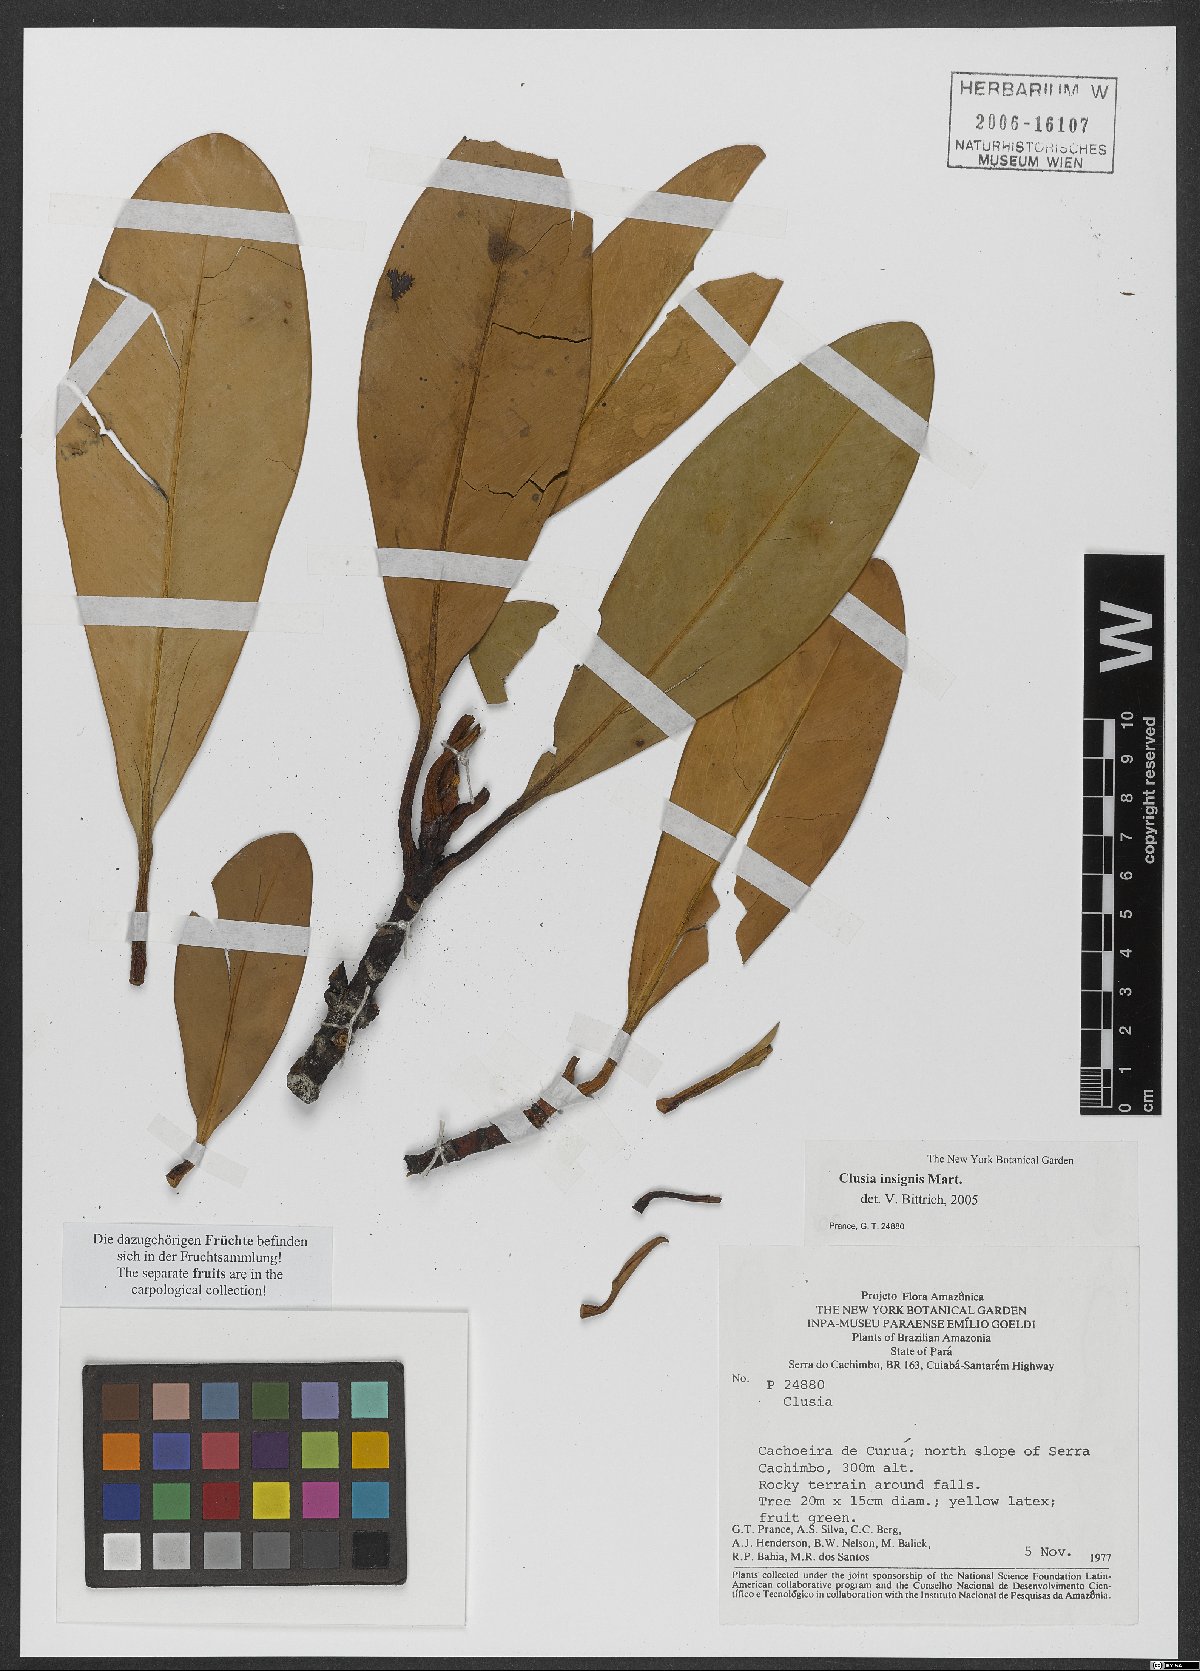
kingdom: Plantae
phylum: Tracheophyta
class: Magnoliopsida
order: Malpighiales
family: Clusiaceae
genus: Clusia
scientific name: Clusia insignis
